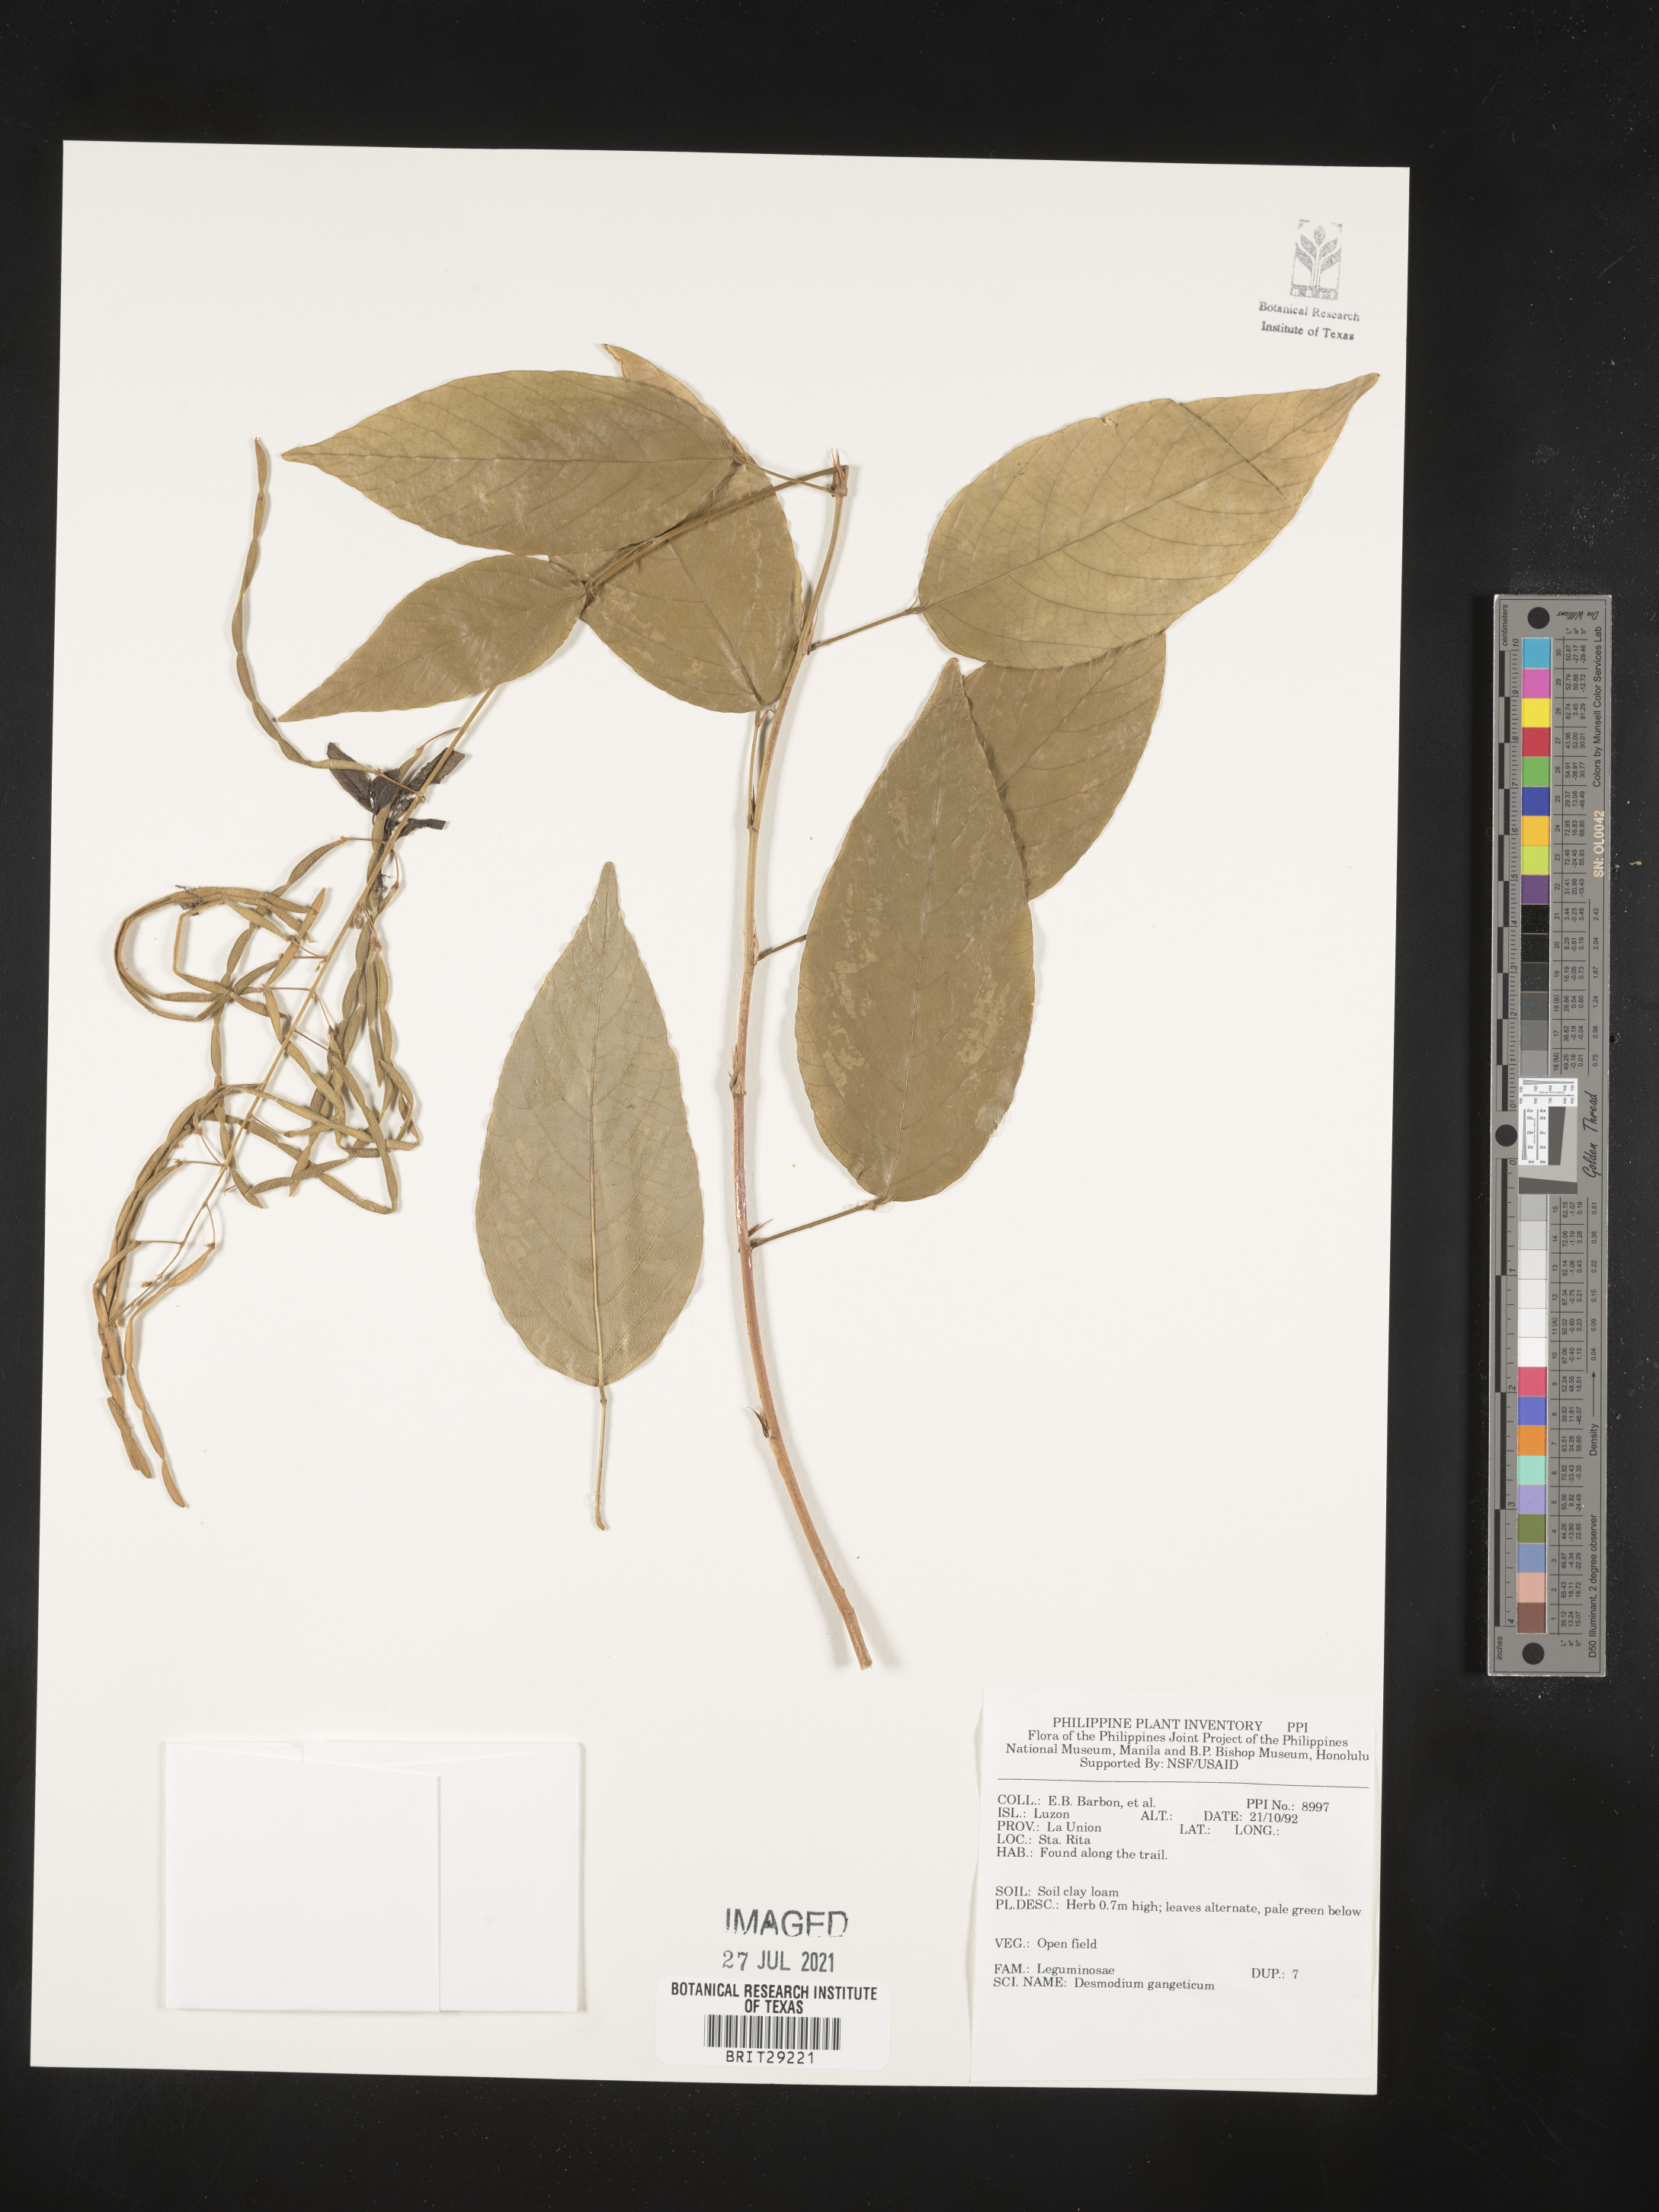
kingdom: Plantae
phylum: Tracheophyta
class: Magnoliopsida
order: Fabales
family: Fabaceae
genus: Pleurolobus
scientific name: Pleurolobus gangeticus
